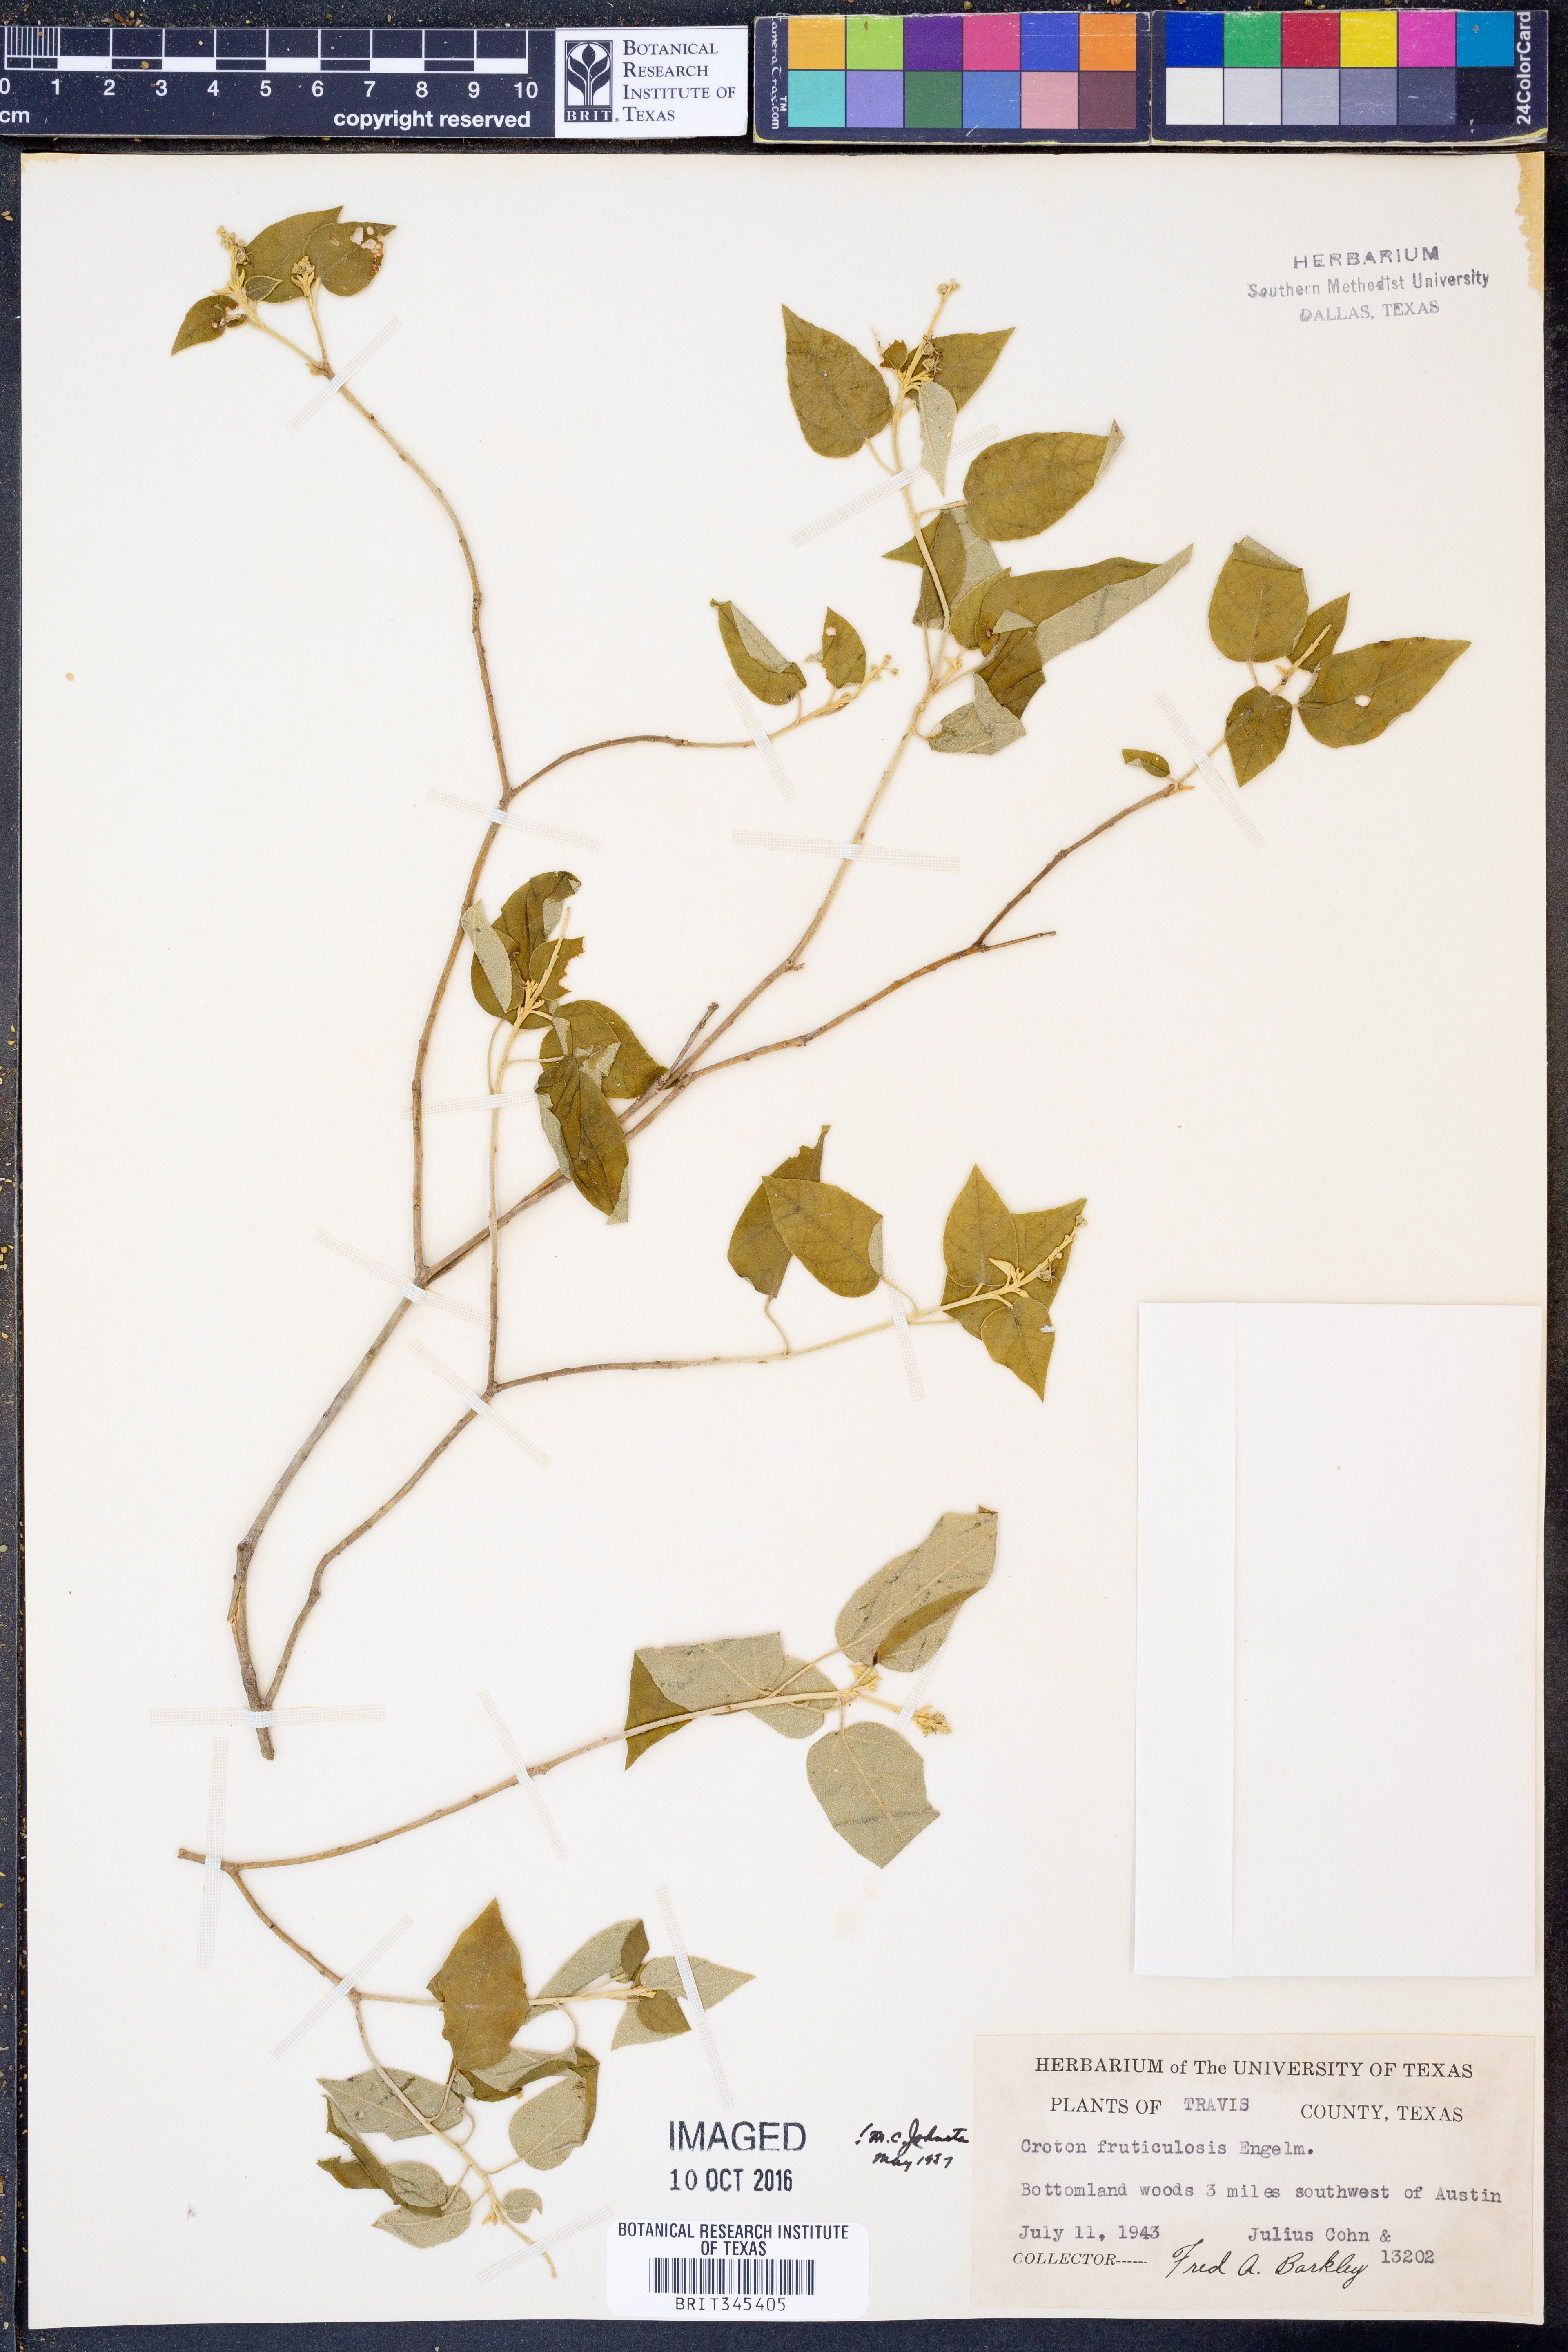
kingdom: Plantae
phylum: Tracheophyta
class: Magnoliopsida
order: Malpighiales
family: Euphorbiaceae
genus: Croton
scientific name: Croton fruticulosus
